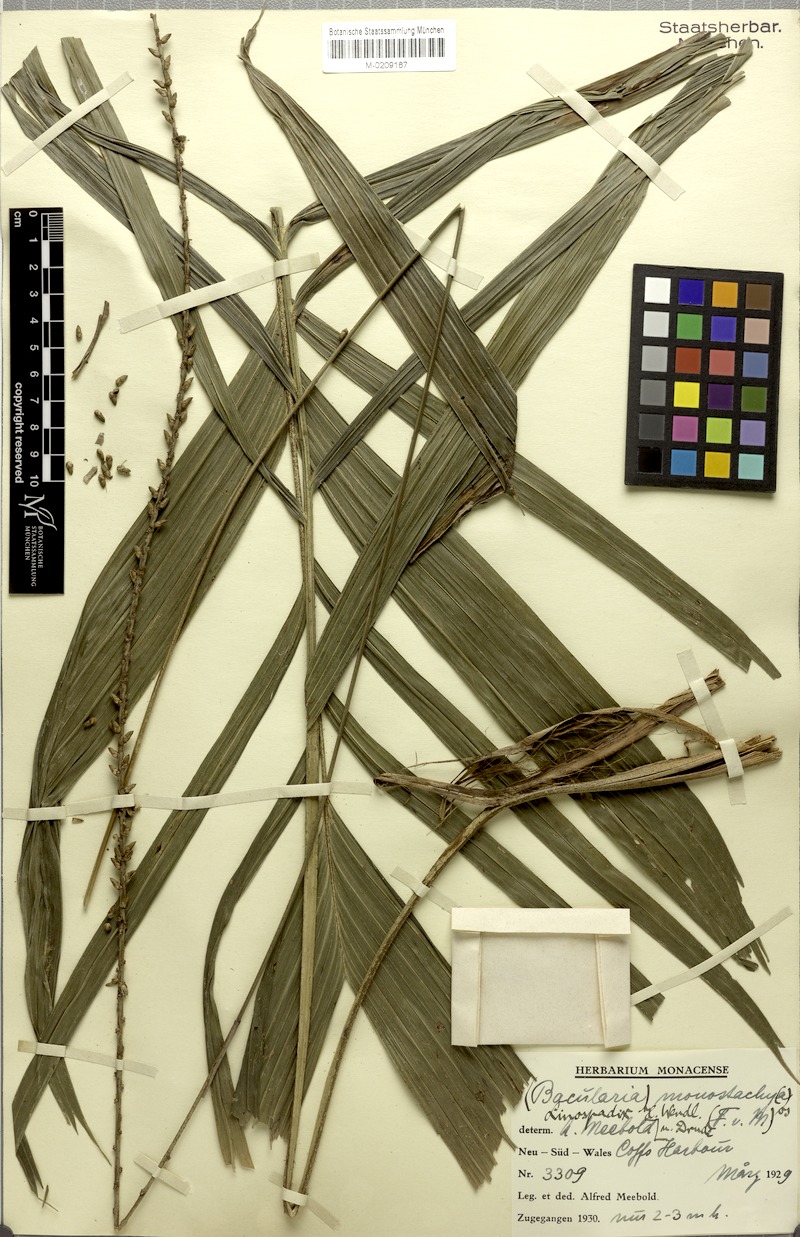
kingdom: Plantae
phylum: Tracheophyta
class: Liliopsida
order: Arecales
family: Arecaceae
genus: Linospadix
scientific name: Linospadix monostachyos
